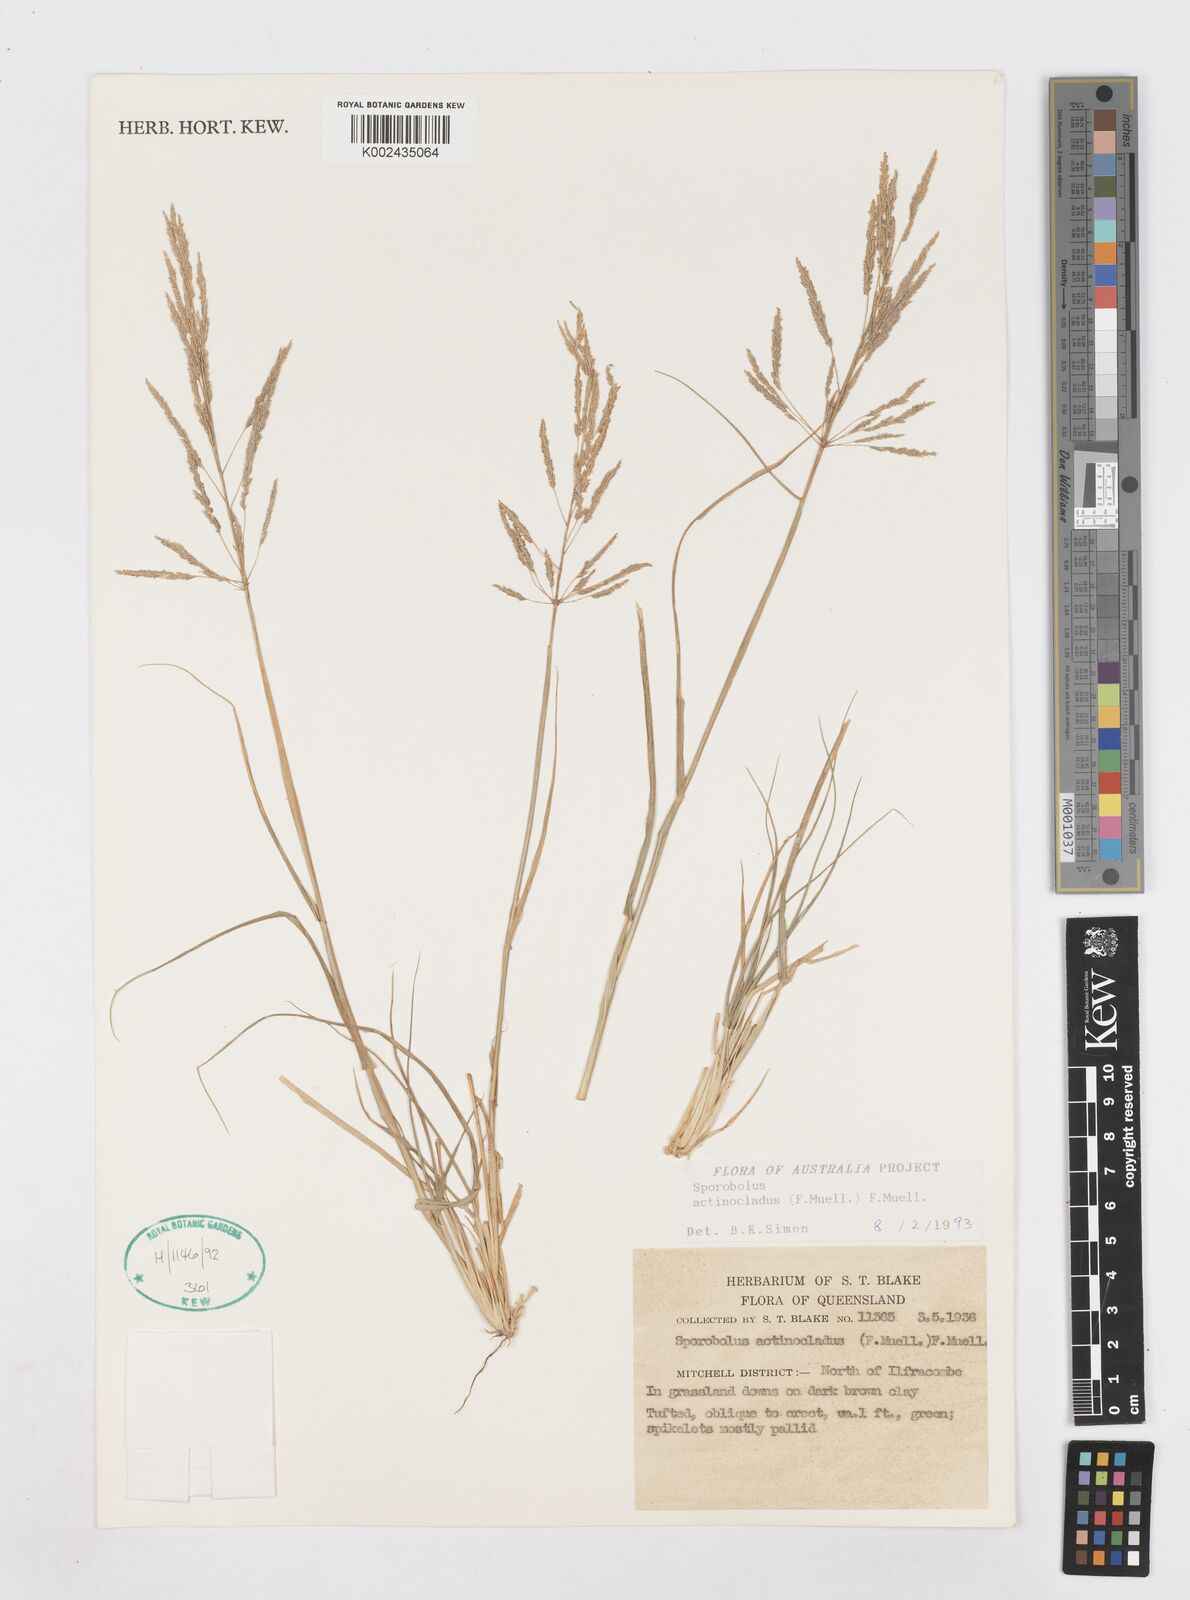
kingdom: Plantae
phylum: Tracheophyta
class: Liliopsida
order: Poales
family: Poaceae
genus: Sporobolus
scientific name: Sporobolus actinocladus
